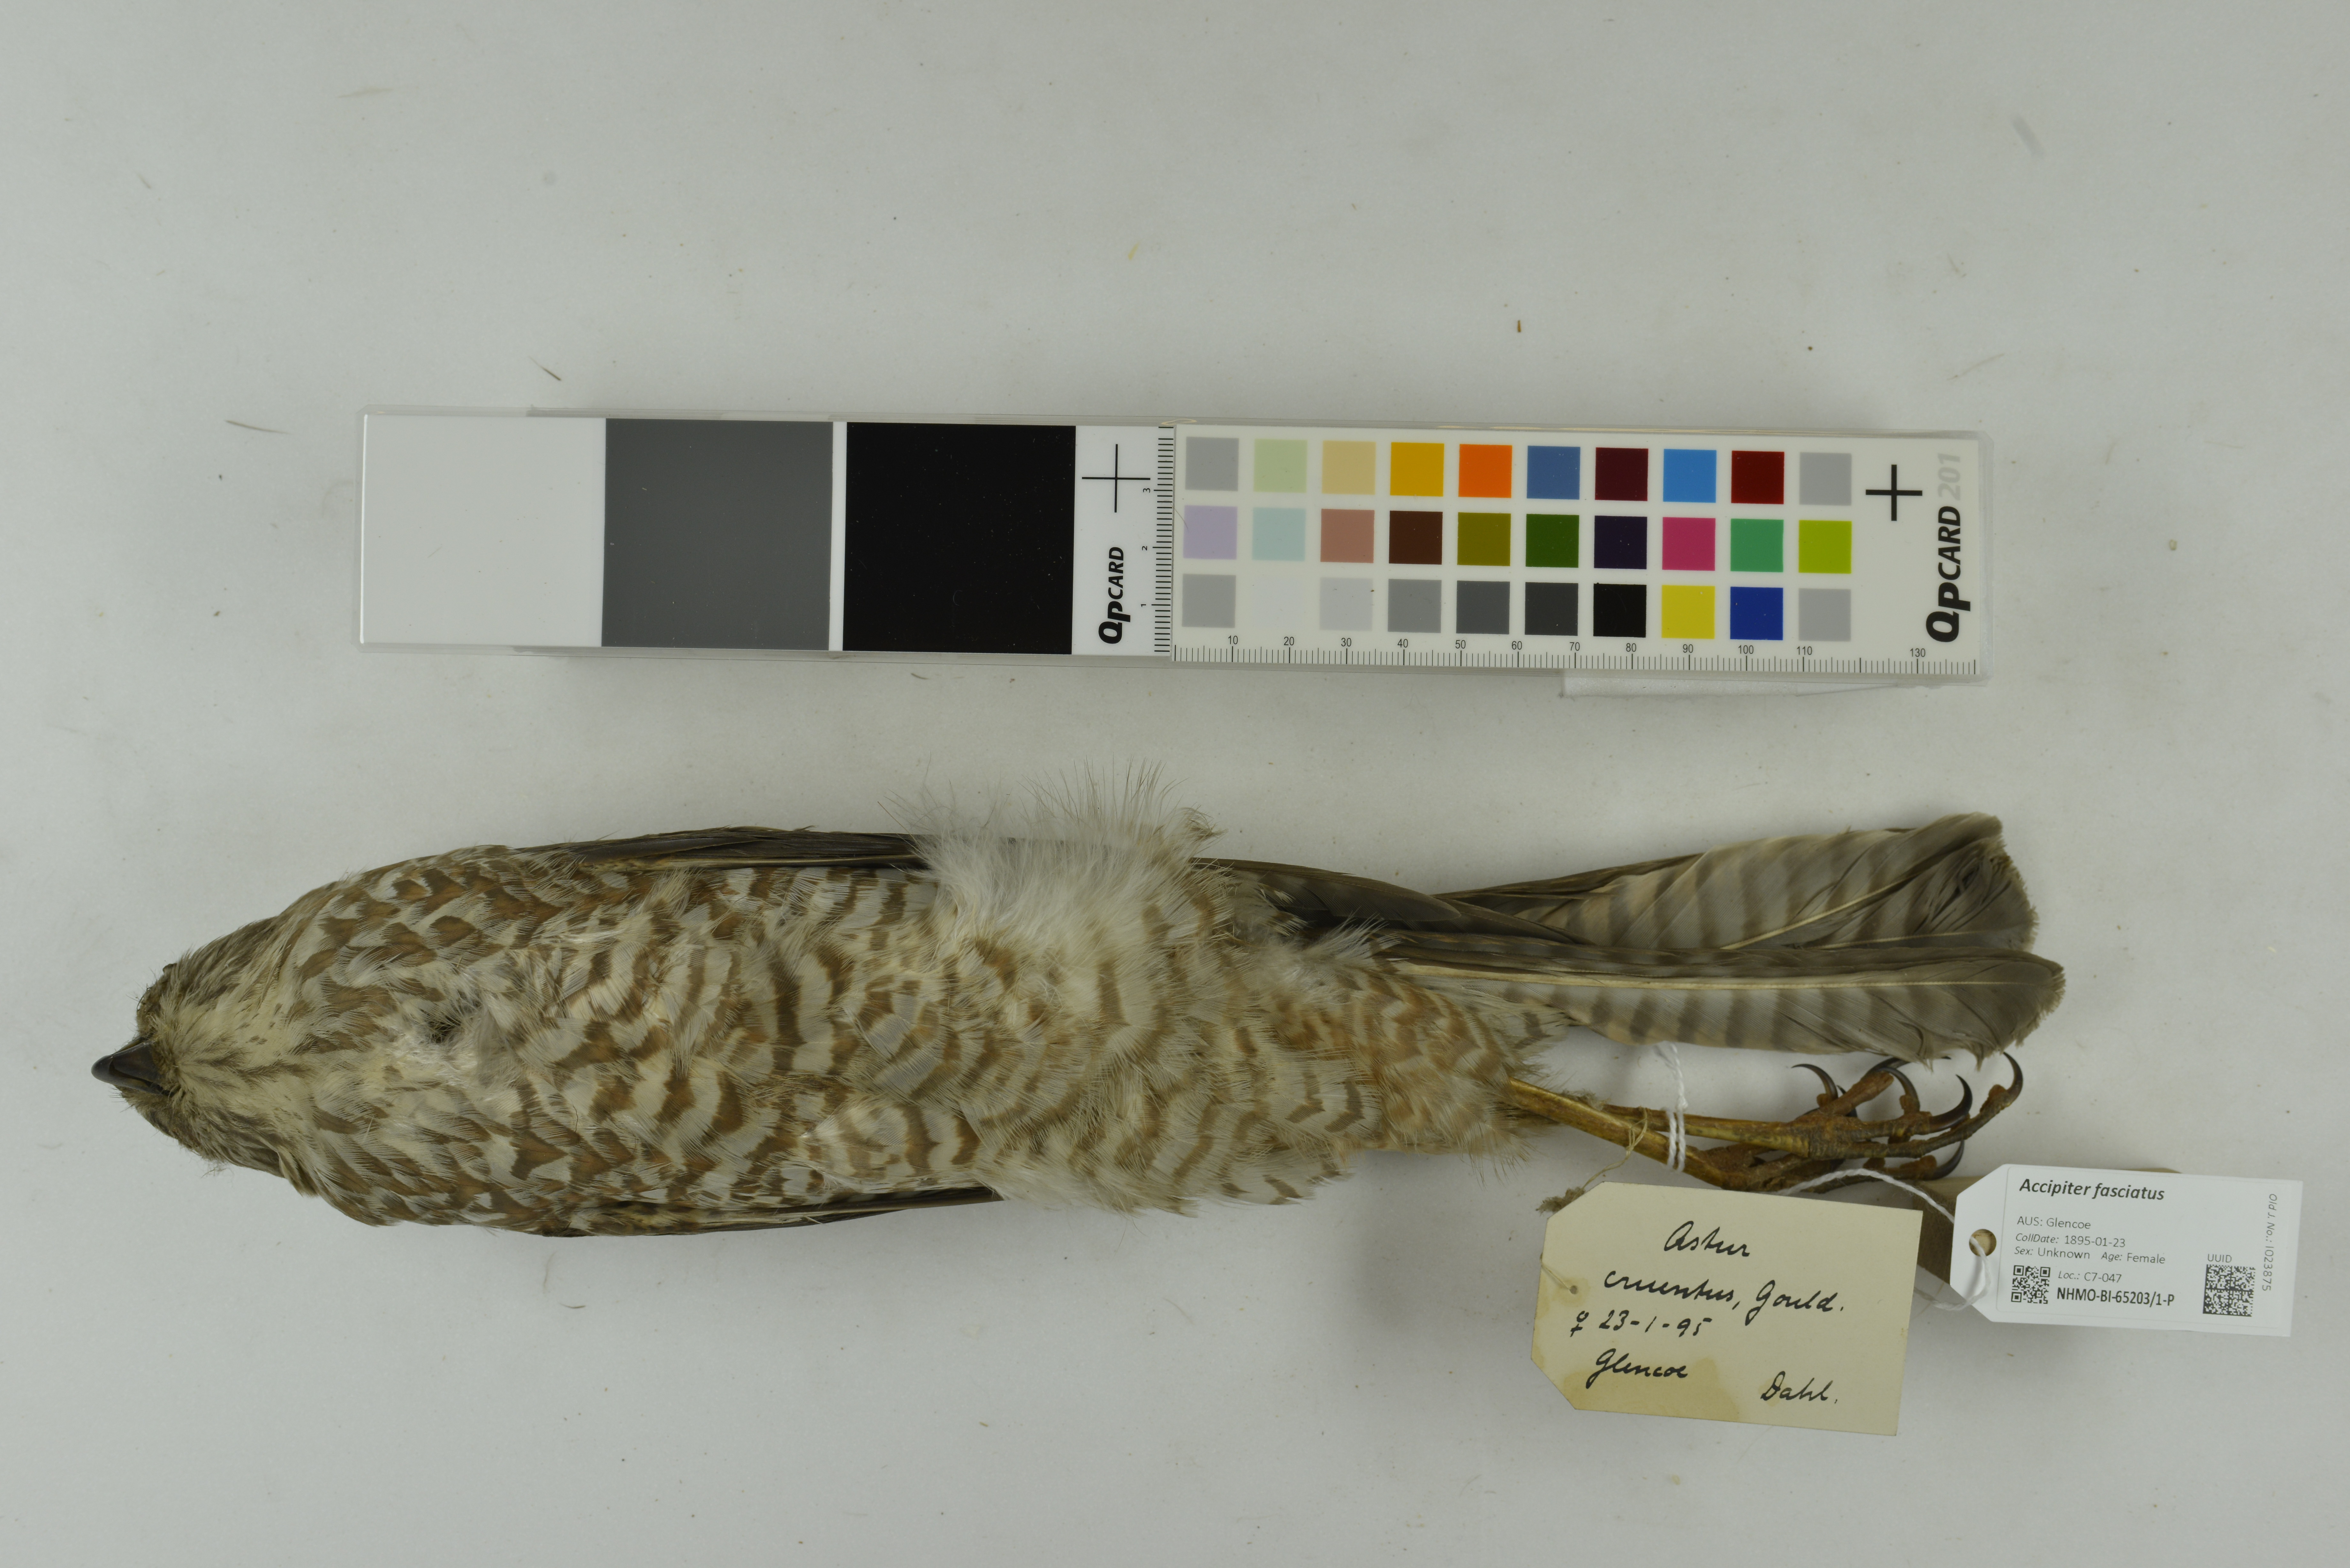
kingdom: Animalia
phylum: Chordata
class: Aves
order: Accipitriformes
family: Accipitridae
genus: Accipiter
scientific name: Accipiter fasciatus
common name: Brown goshawk
